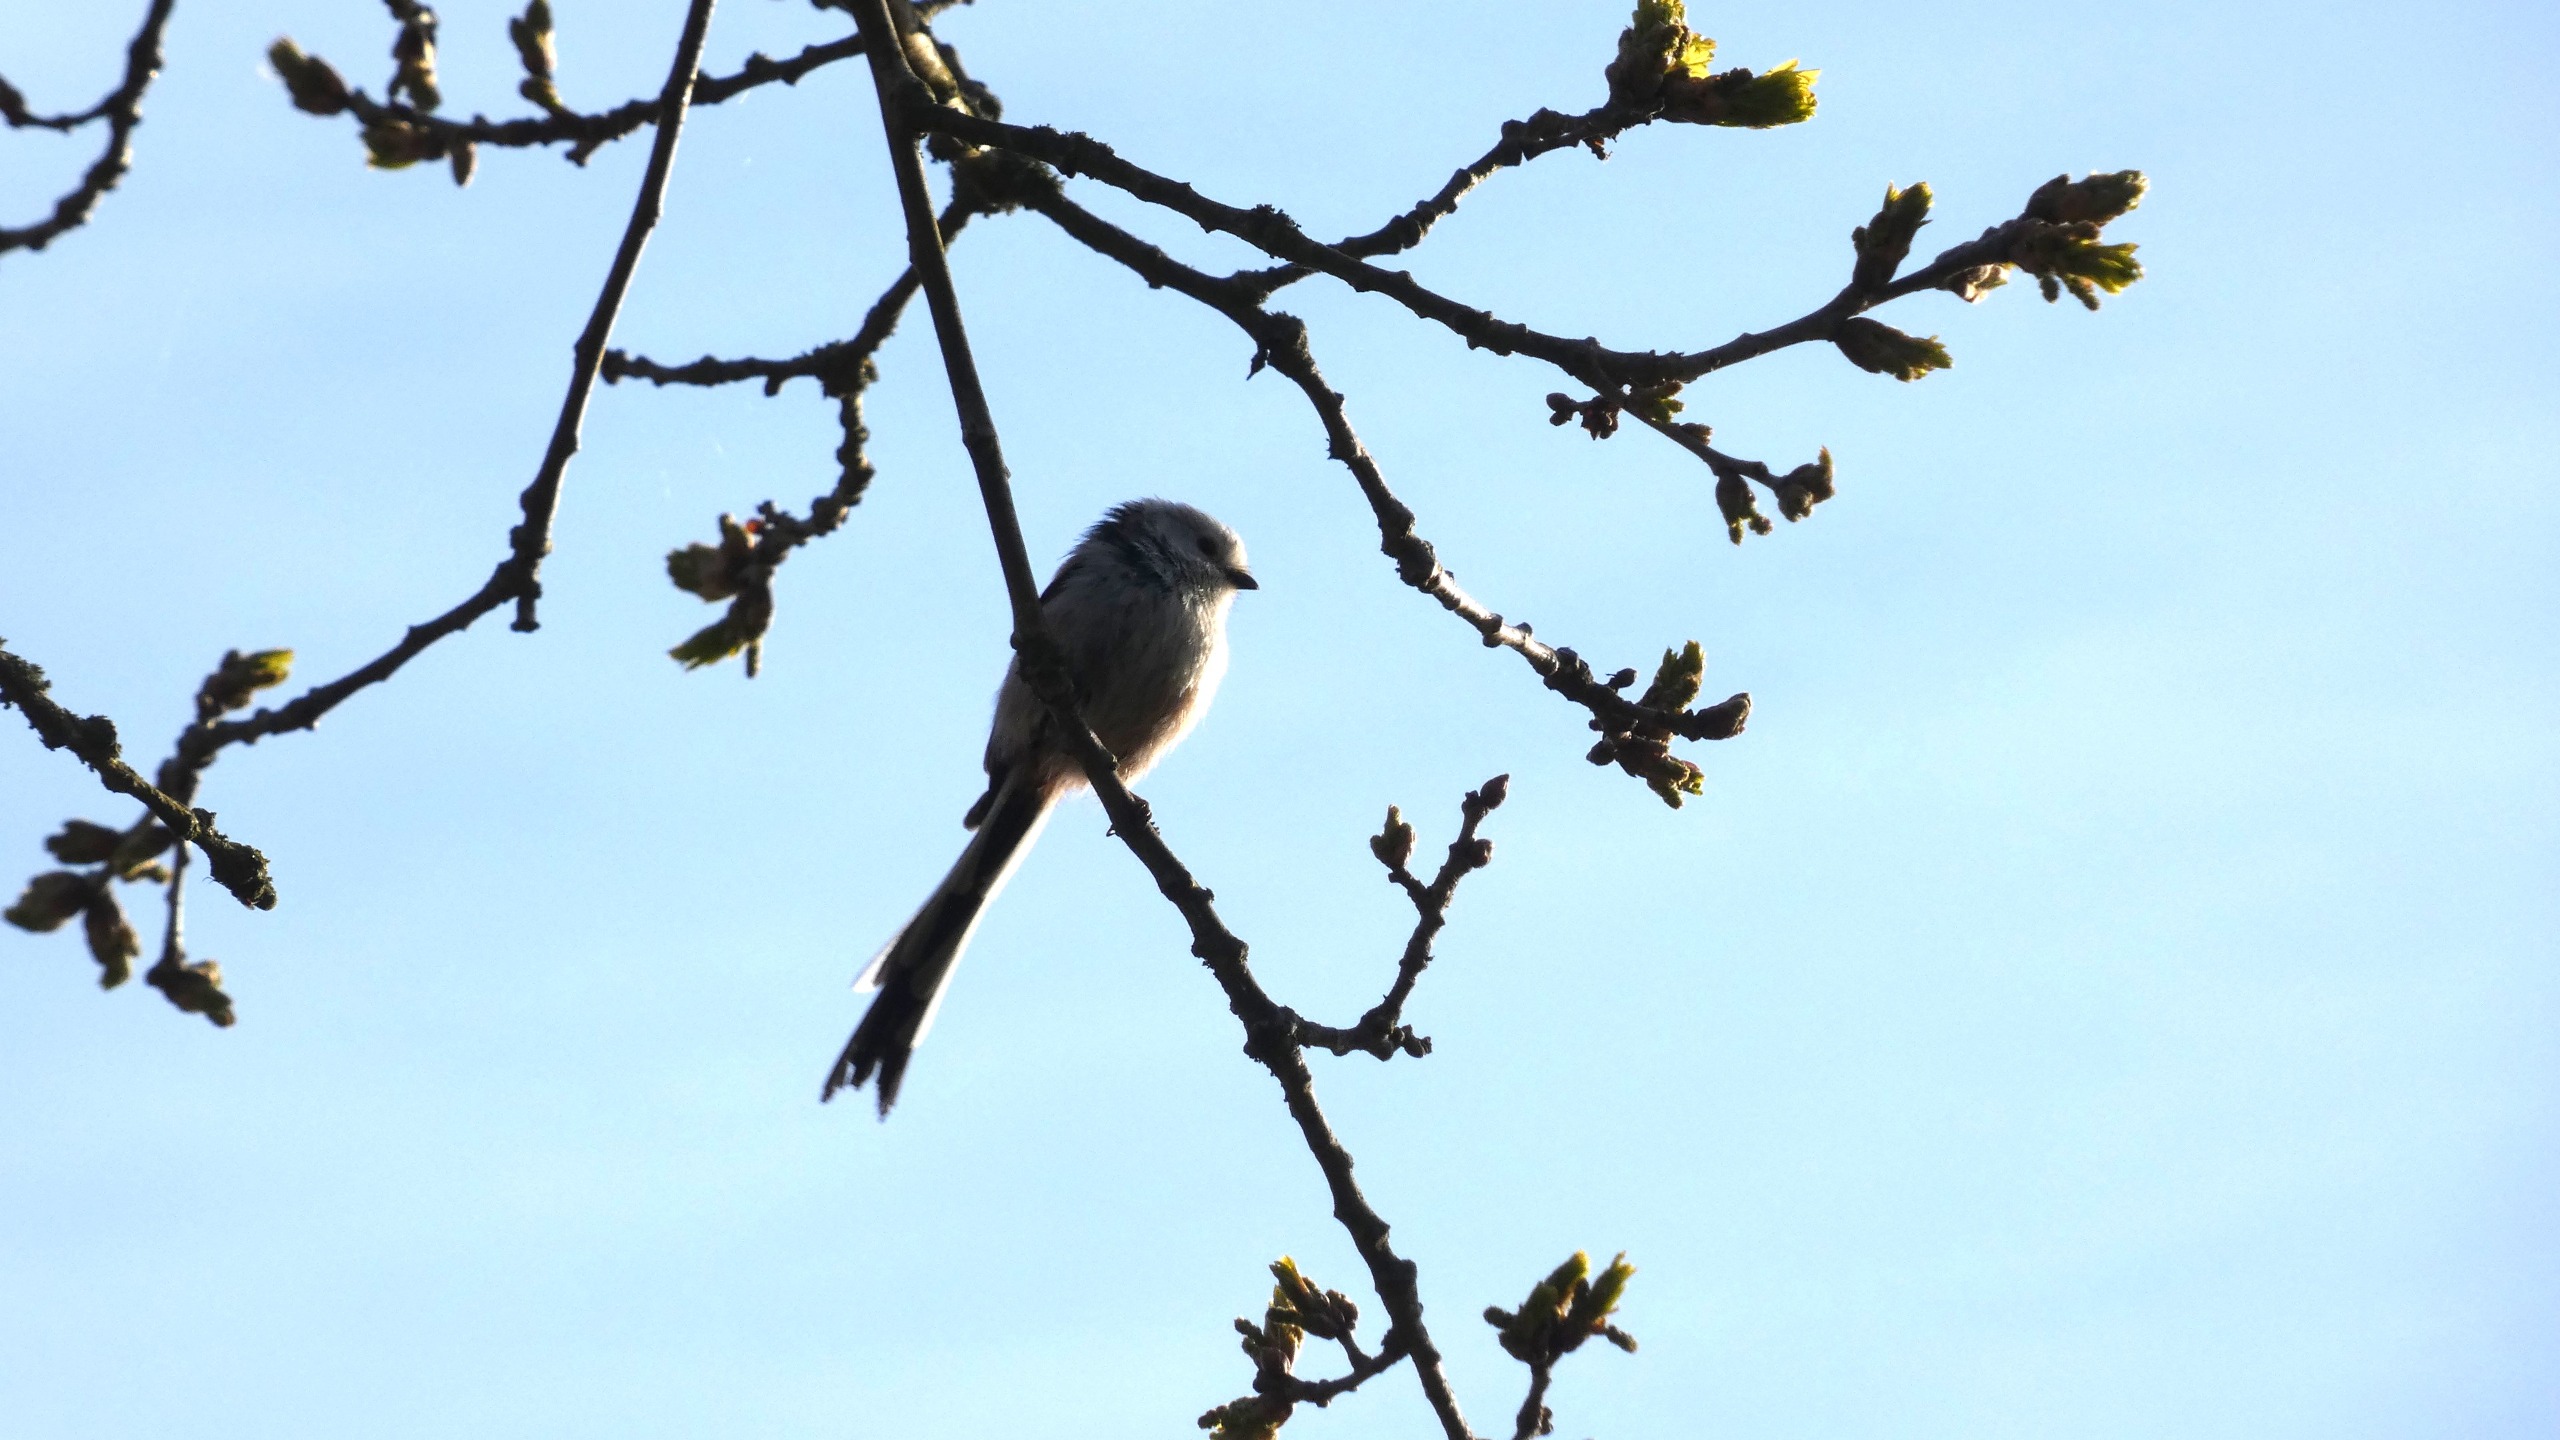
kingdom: Animalia
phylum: Chordata
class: Aves
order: Passeriformes
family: Aegithalidae
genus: Aegithalos
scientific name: Aegithalos caudatus
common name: Halemejse
